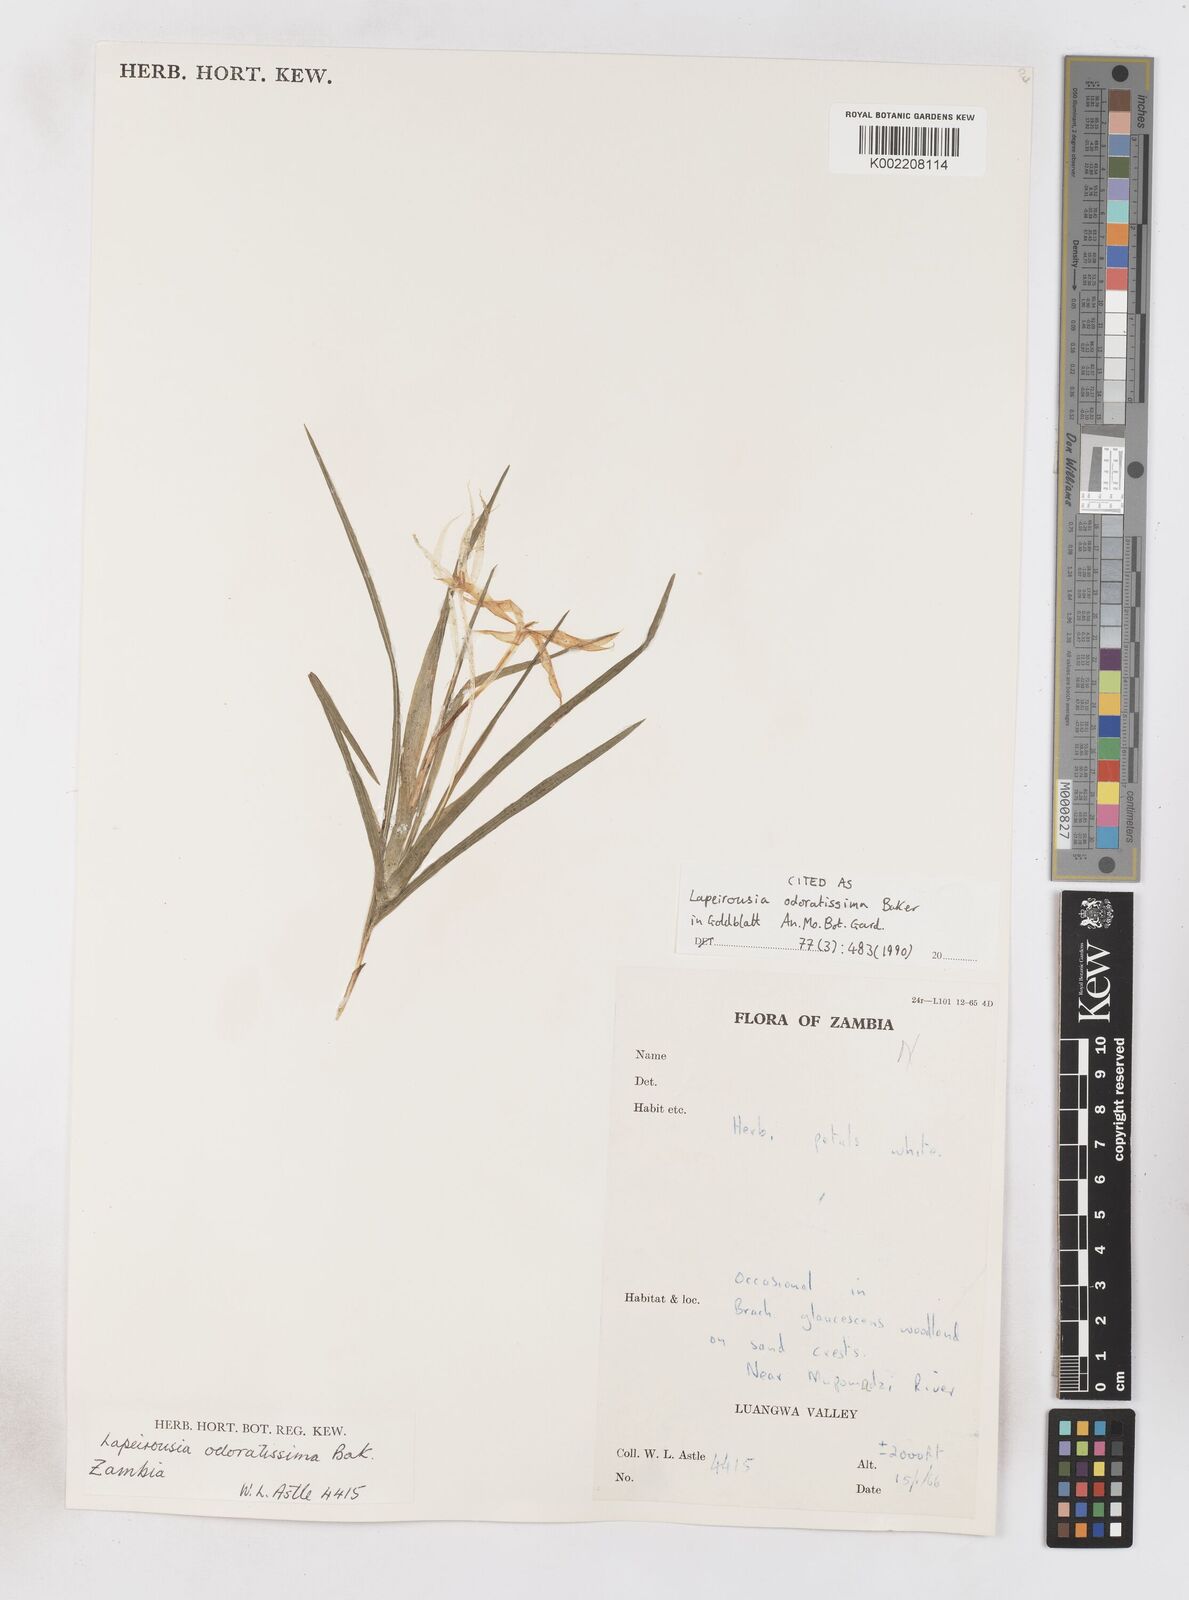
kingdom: Plantae
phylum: Tracheophyta
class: Liliopsida
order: Asparagales
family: Iridaceae
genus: Lapeirousia
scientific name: Lapeirousia odoratissima
